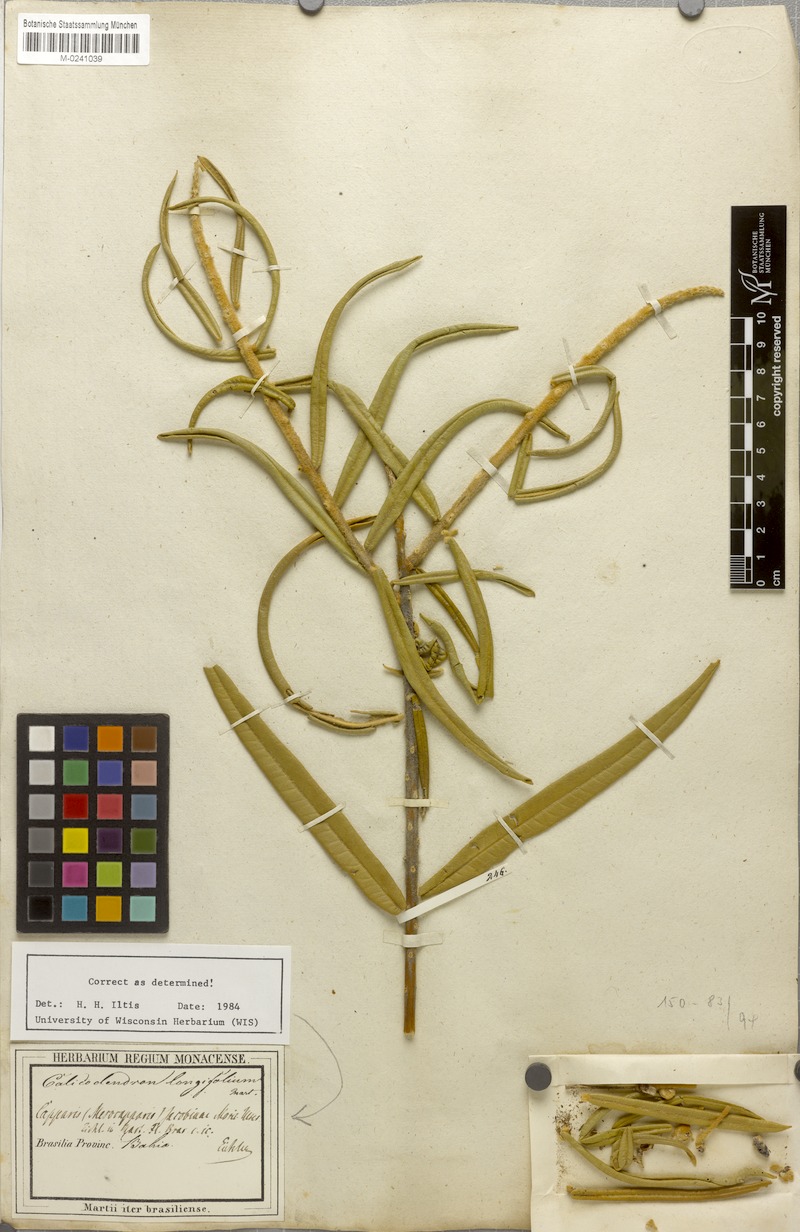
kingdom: Plantae
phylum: Tracheophyta
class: Magnoliopsida
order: Brassicales
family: Capparaceae
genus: Neocalyptrocalyx
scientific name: Neocalyptrocalyx longifolium
